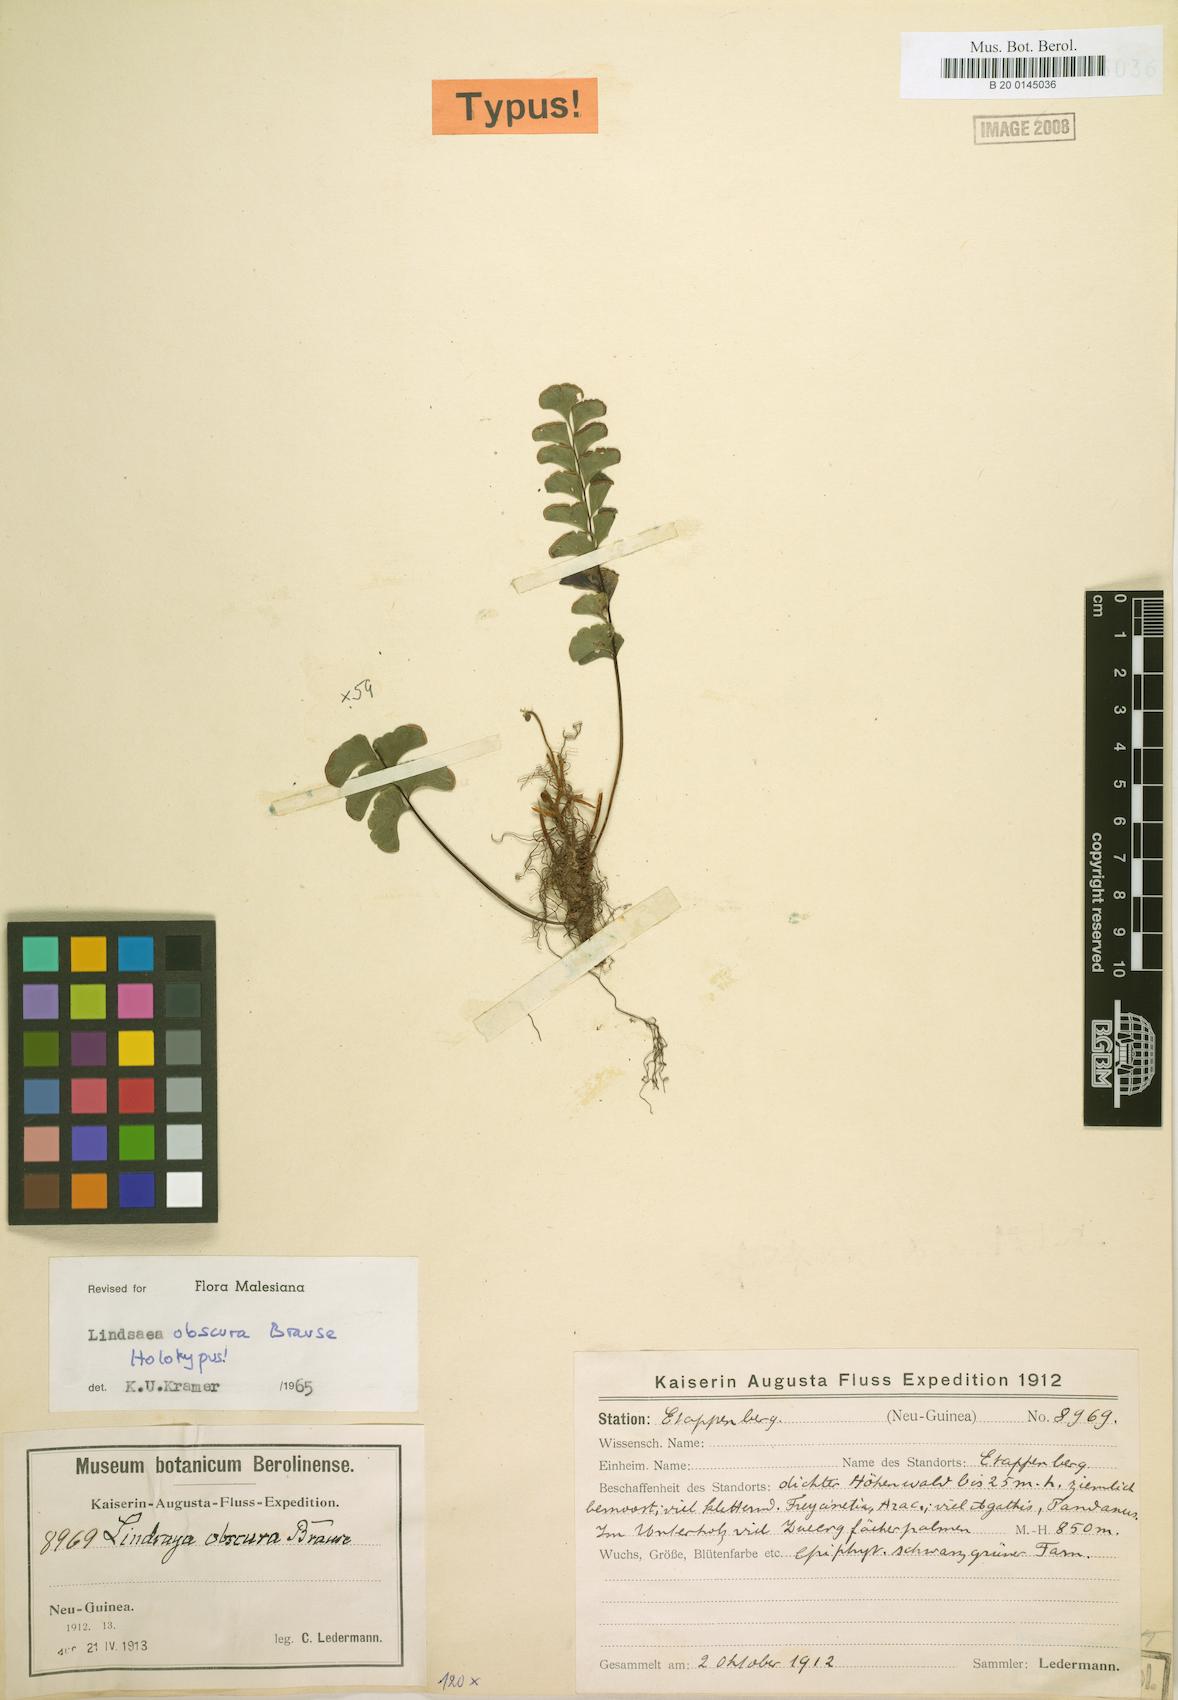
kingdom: Plantae
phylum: Tracheophyta
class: Polypodiopsida
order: Polypodiales
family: Lindsaeaceae
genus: Lindsaea
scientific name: Lindsaea obscura
